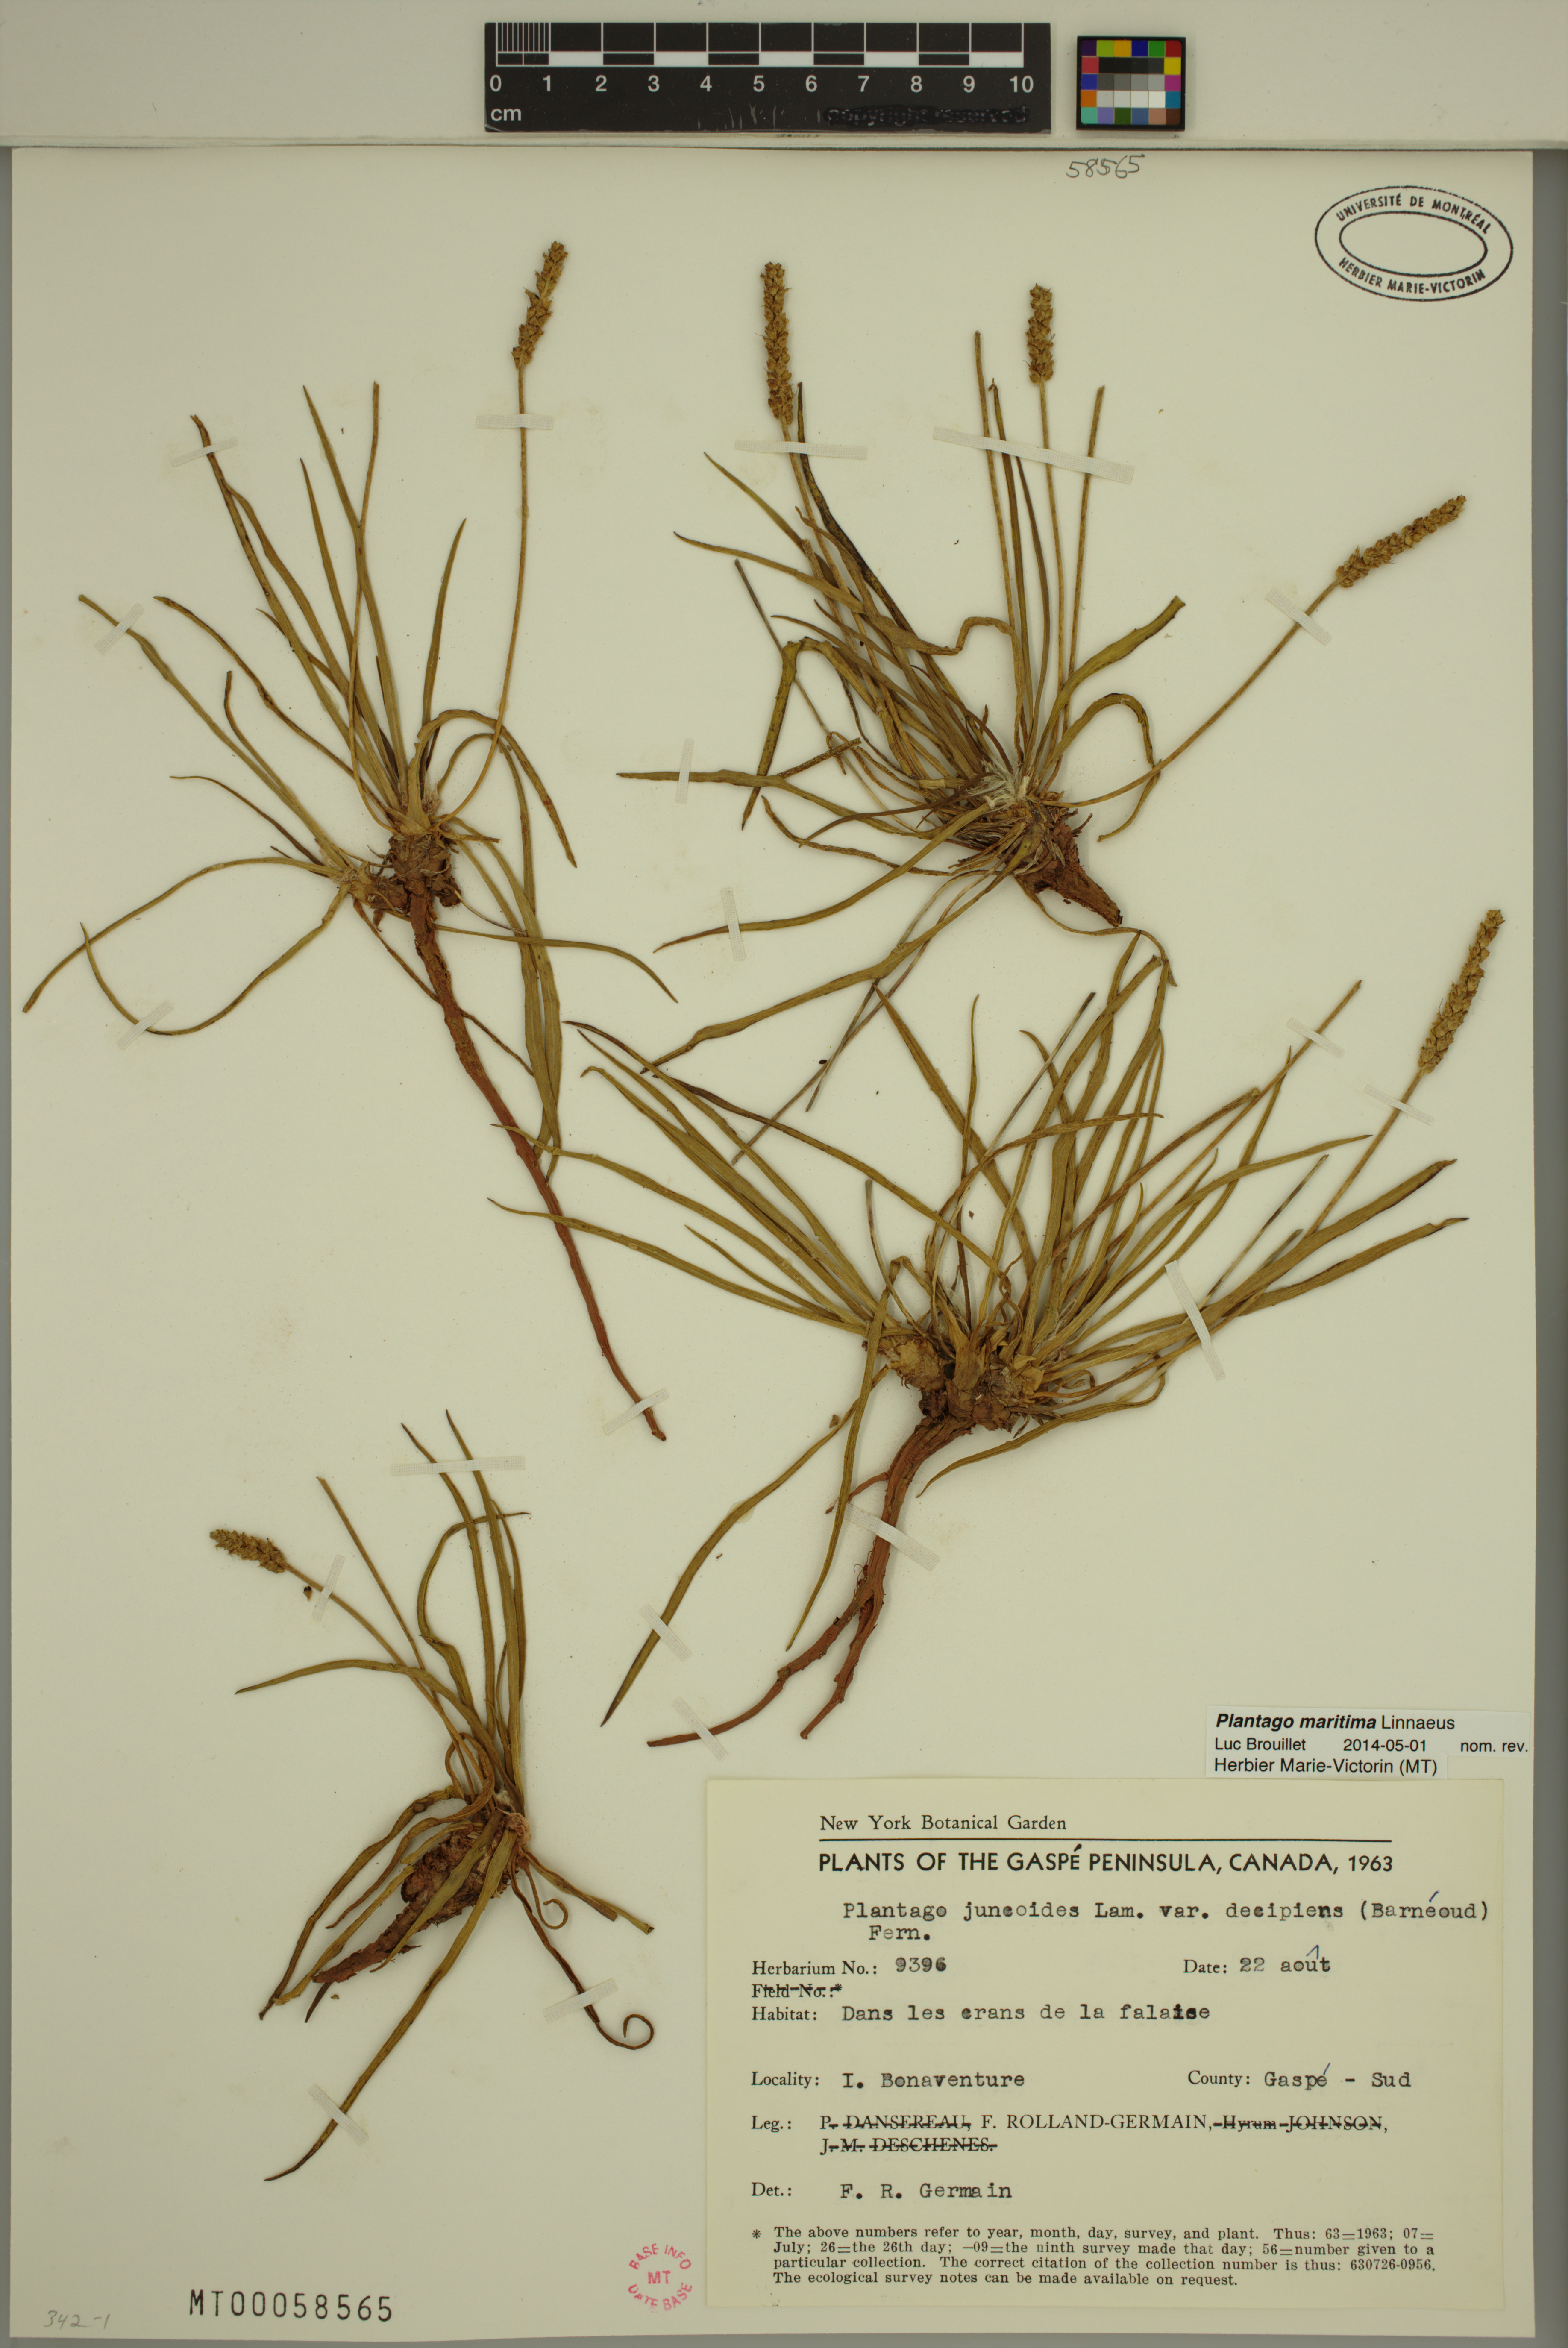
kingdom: Plantae
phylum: Tracheophyta
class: Magnoliopsida
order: Lamiales
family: Plantaginaceae
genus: Plantago
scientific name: Plantago maritima
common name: Sea plantain
